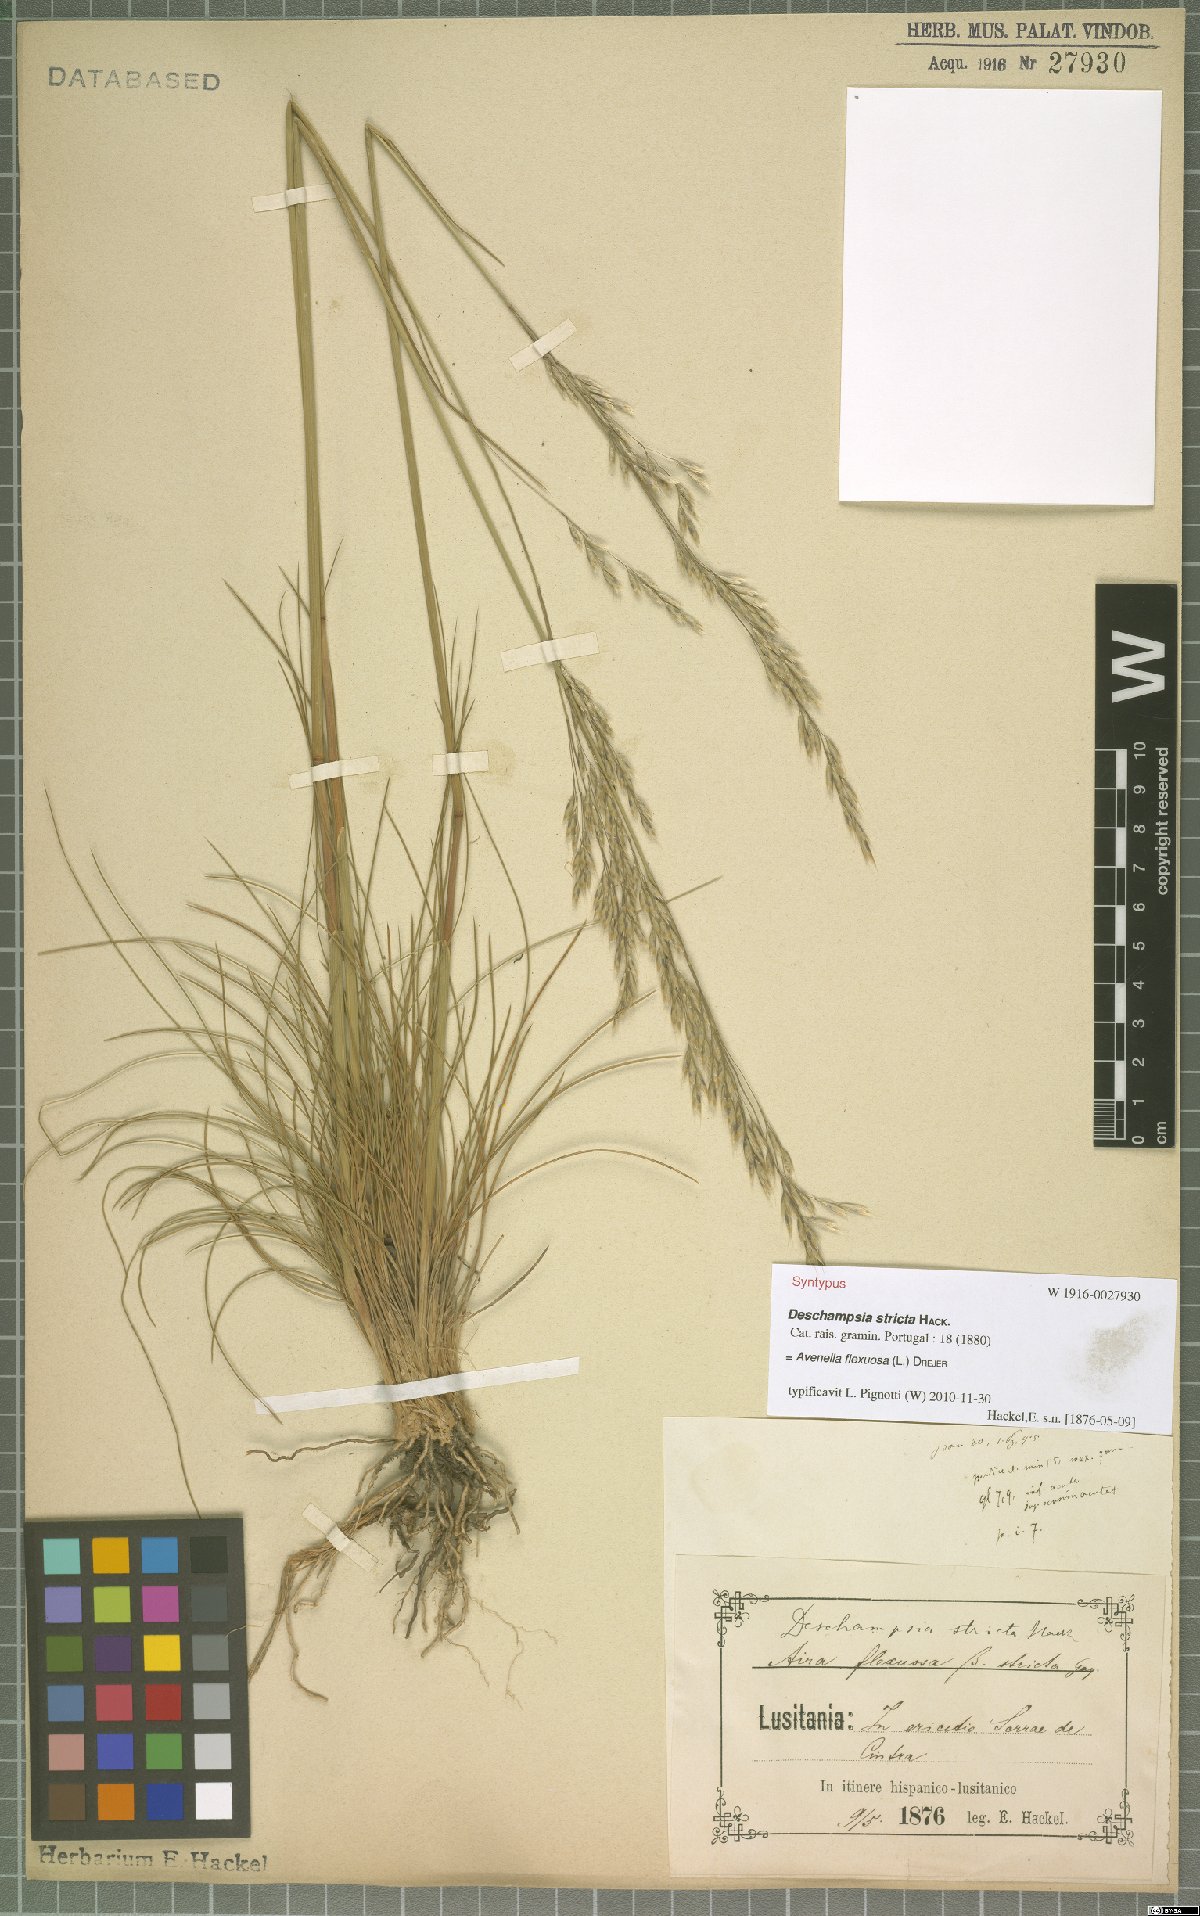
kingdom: Plantae
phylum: Tracheophyta
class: Liliopsida
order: Poales
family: Poaceae
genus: Avenella
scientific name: Avenella flexuosa
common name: Wavy hairgrass
